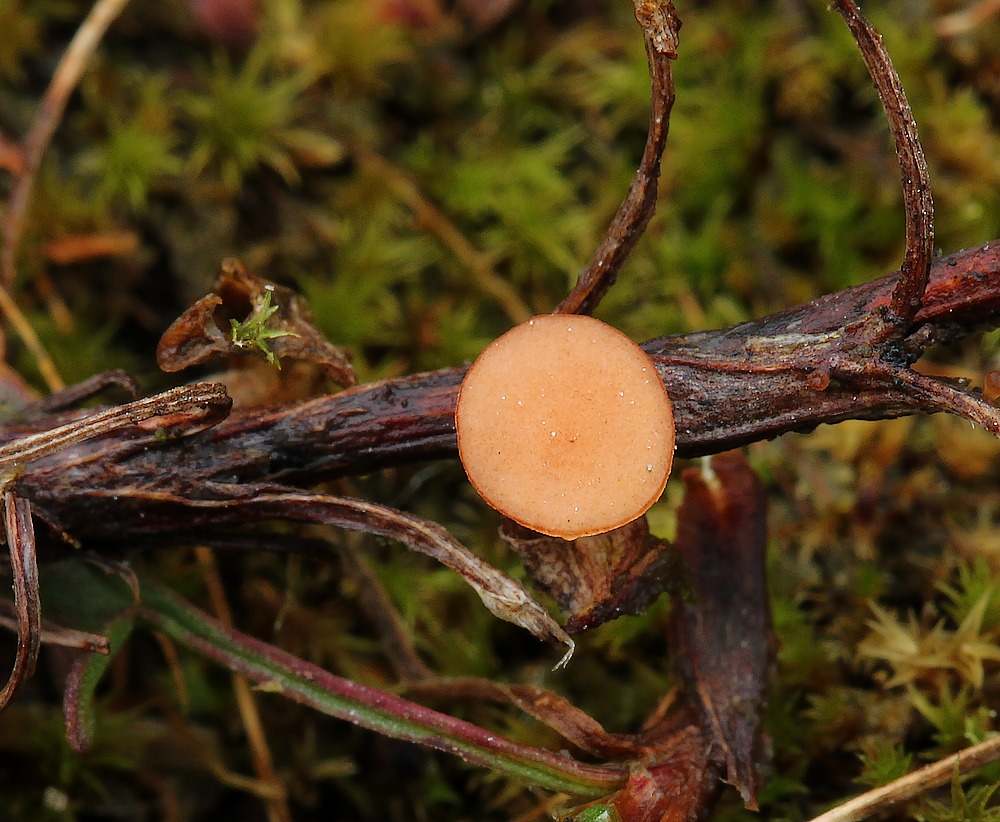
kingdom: Fungi
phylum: Ascomycota
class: Leotiomycetes
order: Helotiales
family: Sclerotiniaceae
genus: Clarireedia
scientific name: Clarireedia
